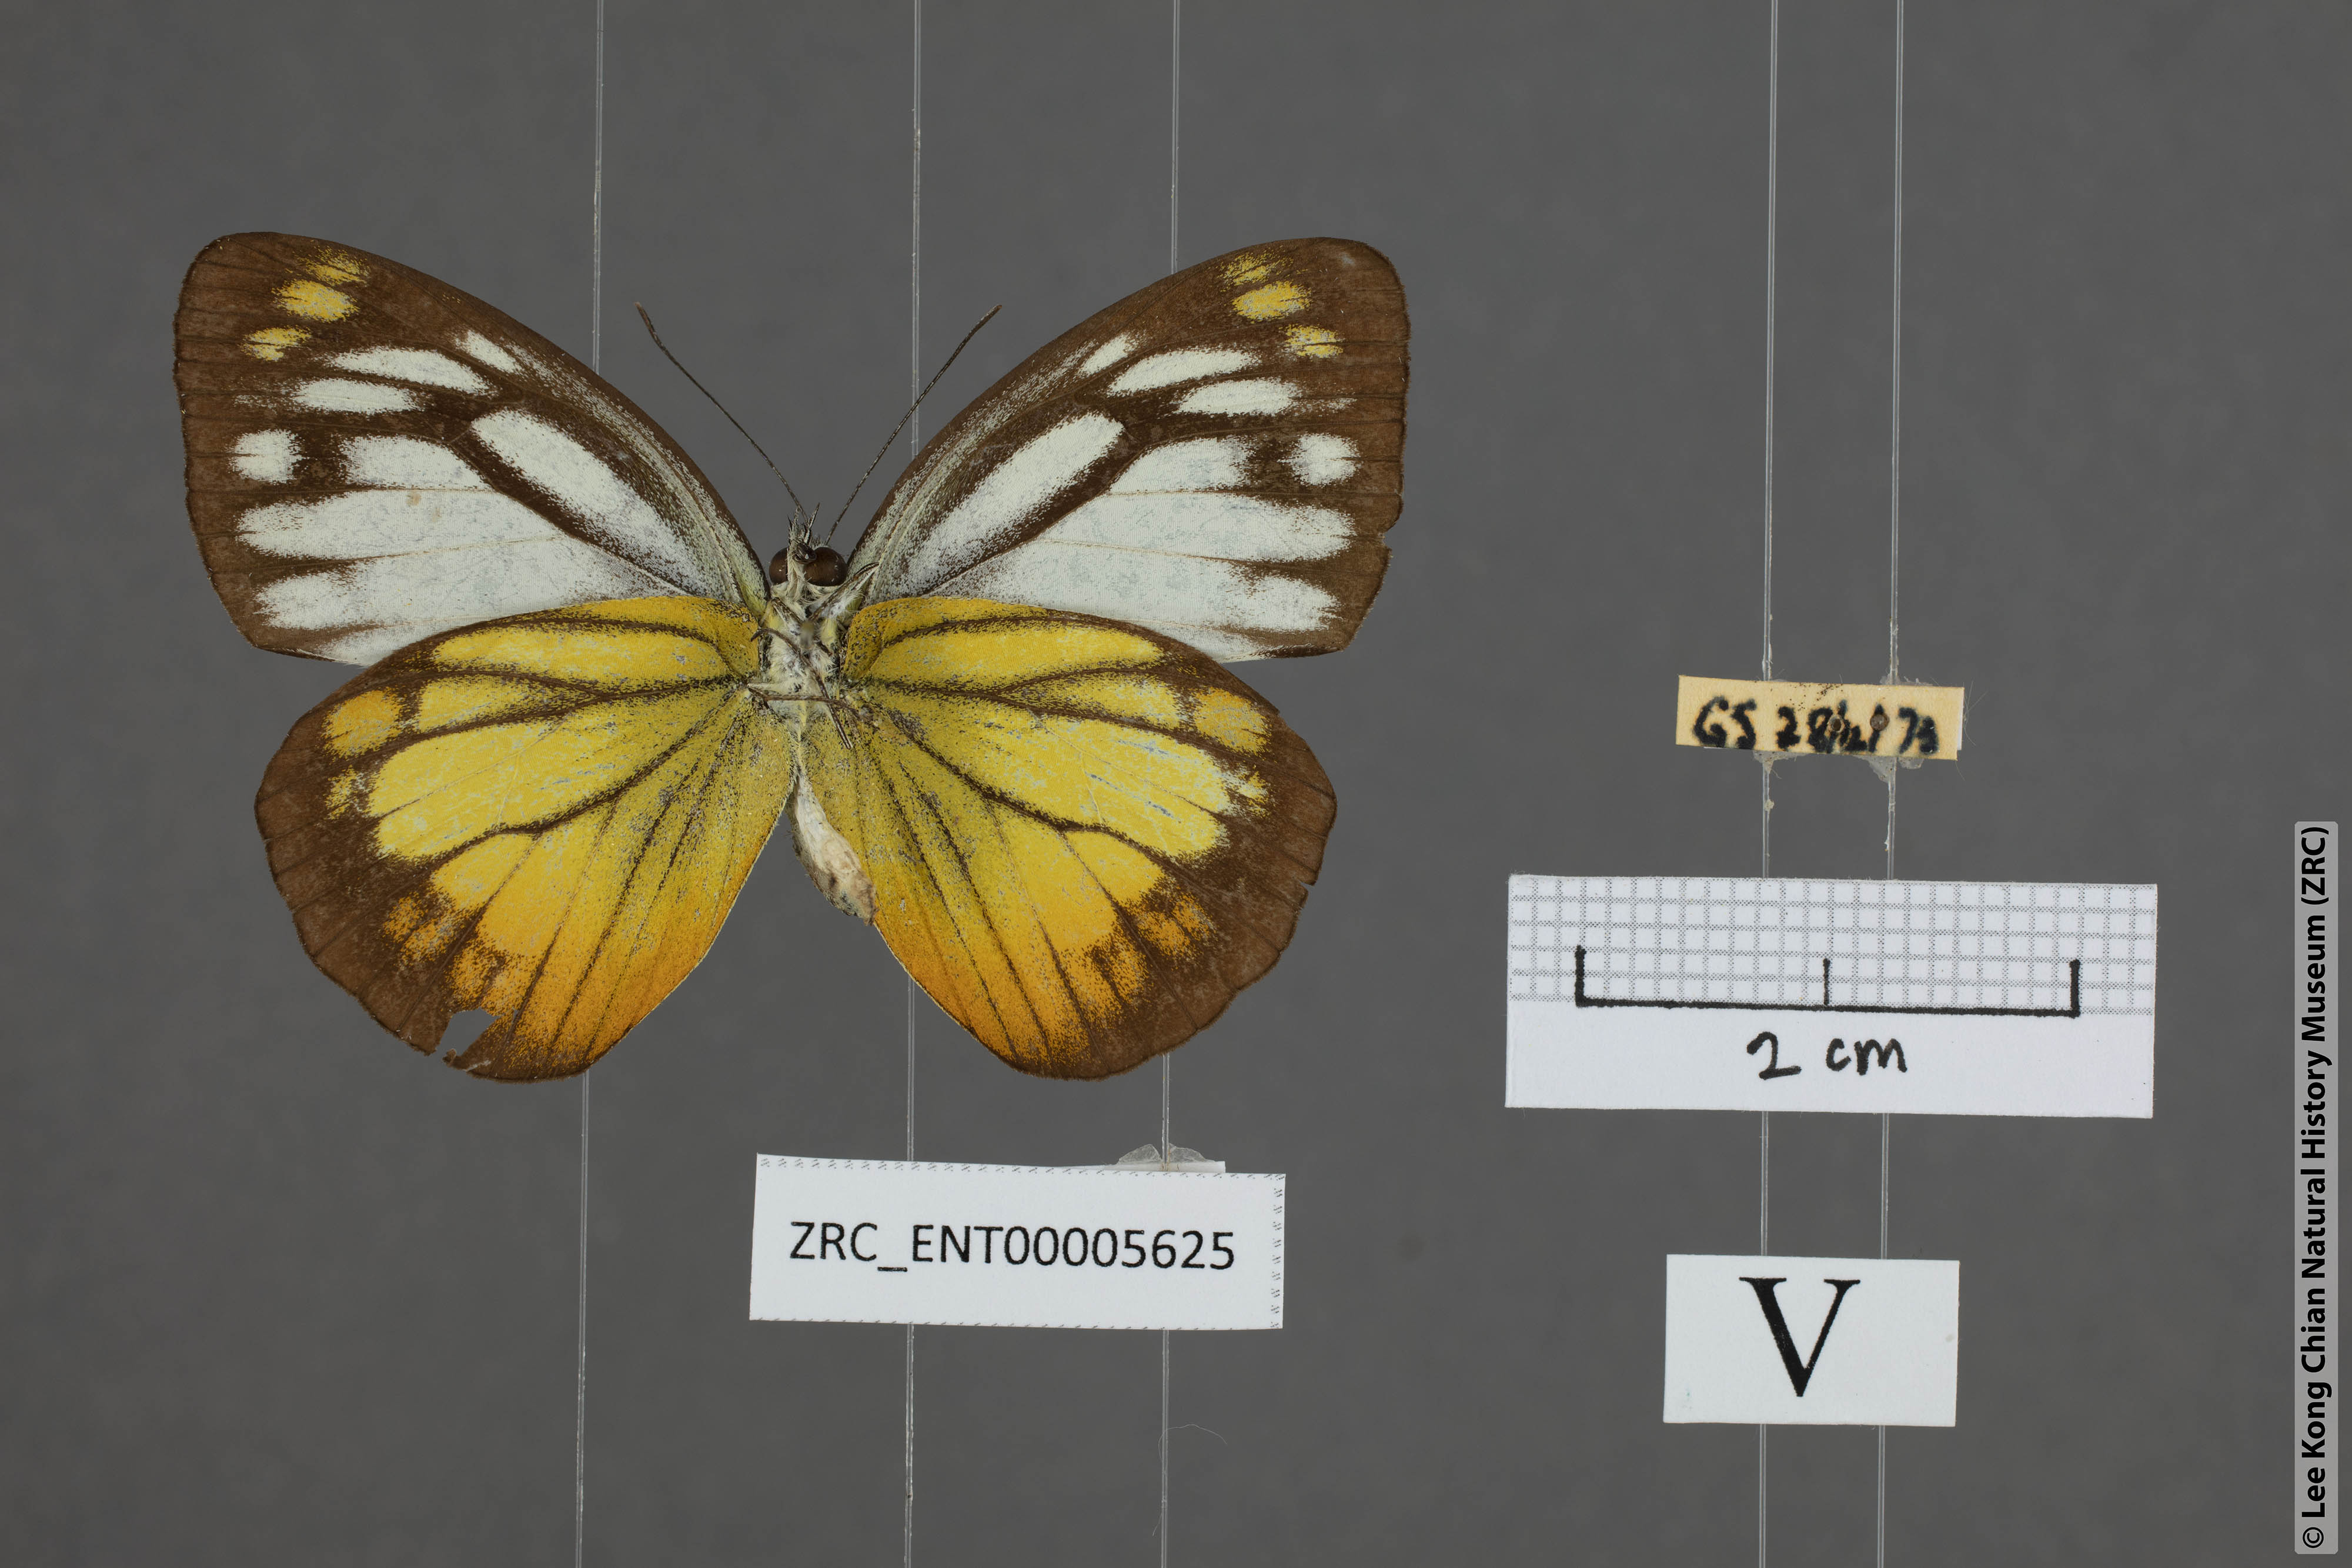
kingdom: Animalia
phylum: Arthropoda
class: Insecta
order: Lepidoptera
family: Pieridae
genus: Cepora
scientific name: Cepora iudith
